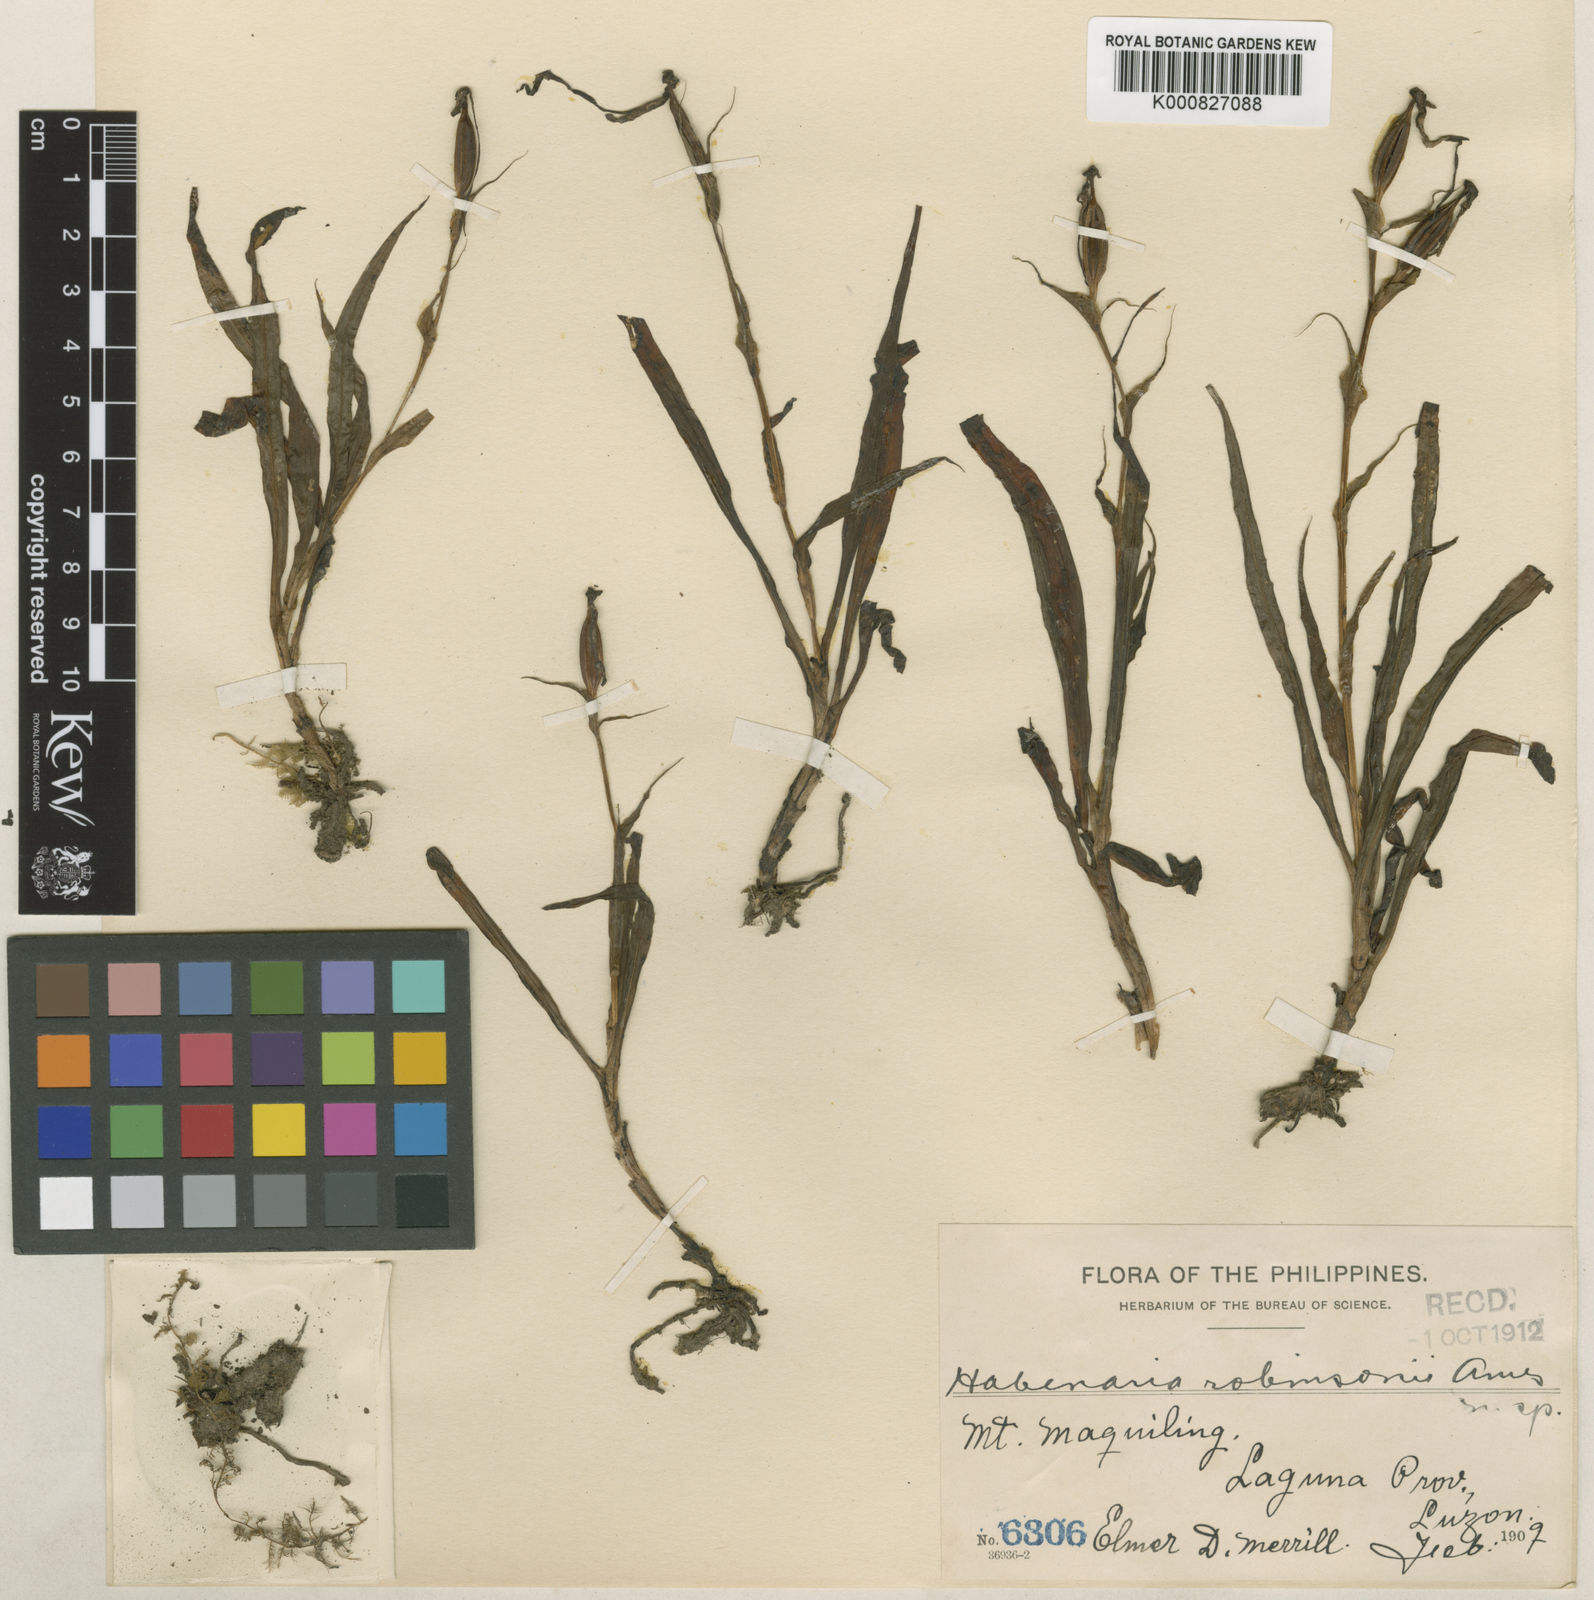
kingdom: Plantae
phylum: Tracheophyta
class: Liliopsida
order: Asparagales
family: Orchidaceae
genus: Habenaria
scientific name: Habenaria robinsonii
